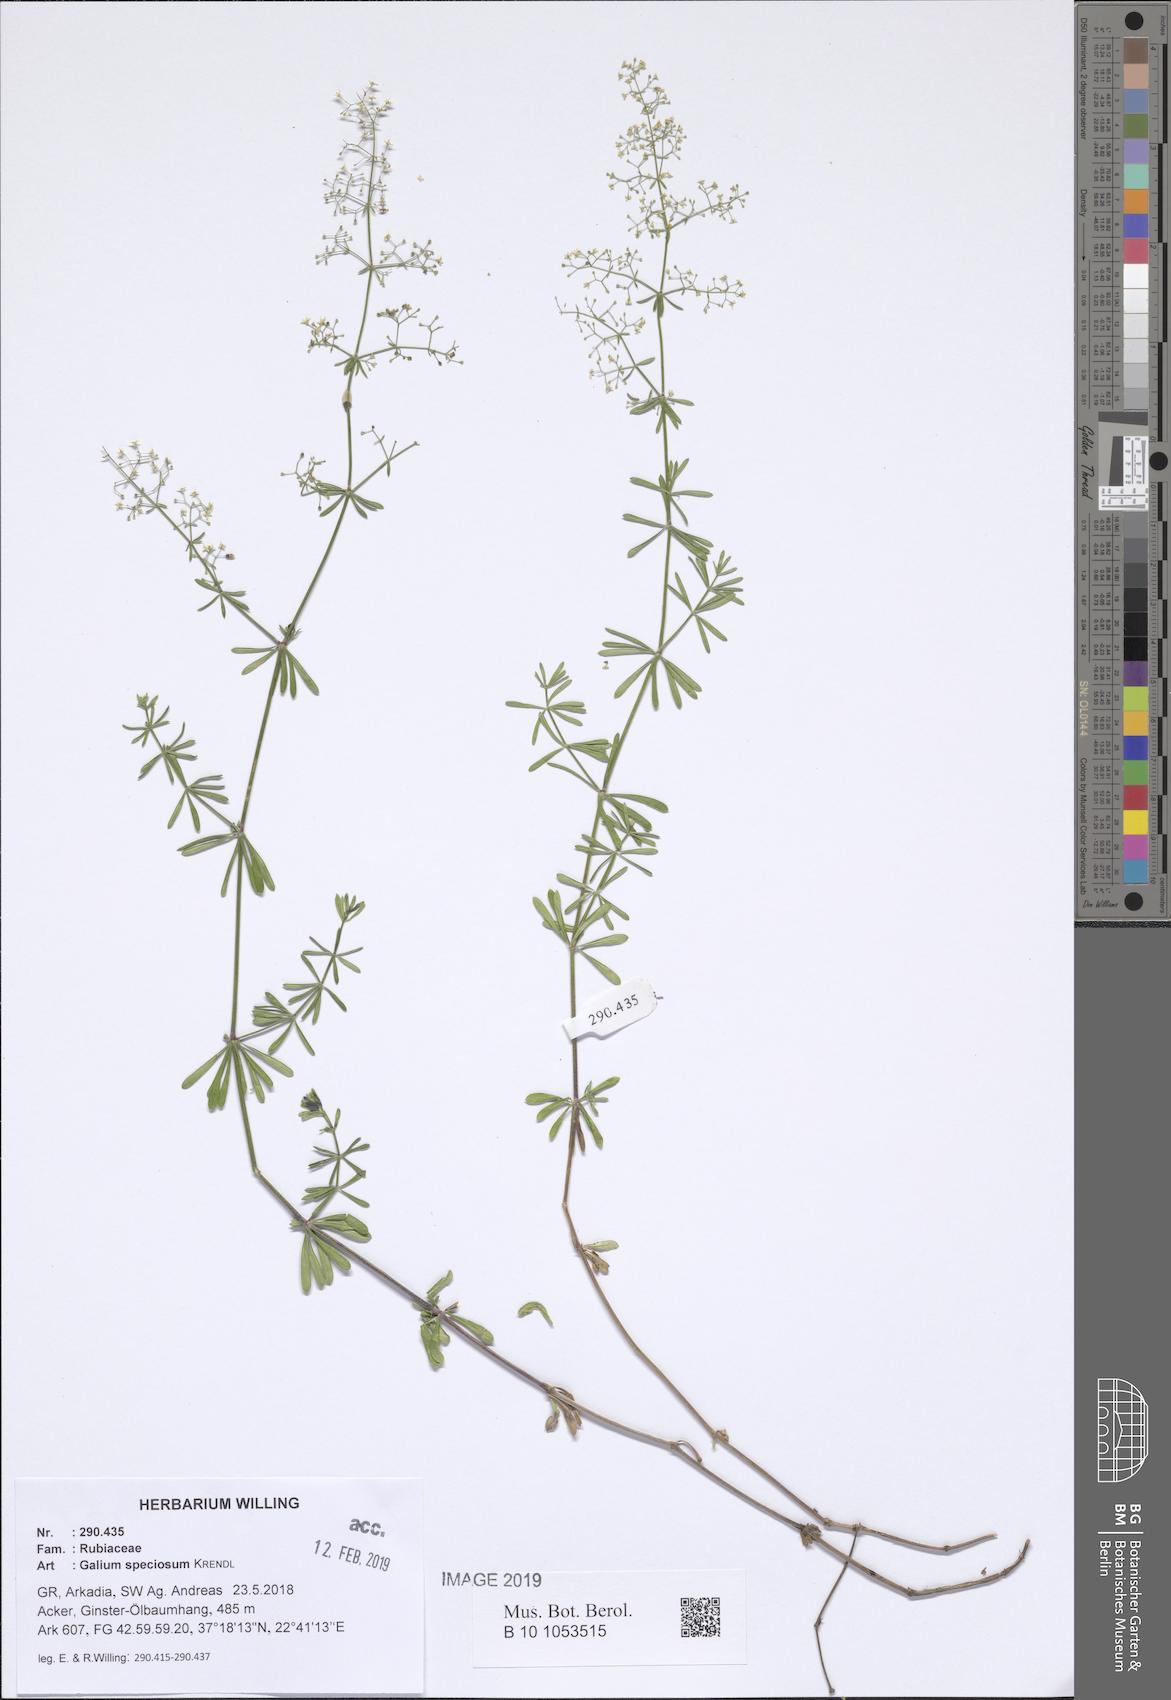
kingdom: Plantae
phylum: Tracheophyta
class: Magnoliopsida
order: Gentianales
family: Rubiaceae
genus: Galium
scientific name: Galium speciosum
